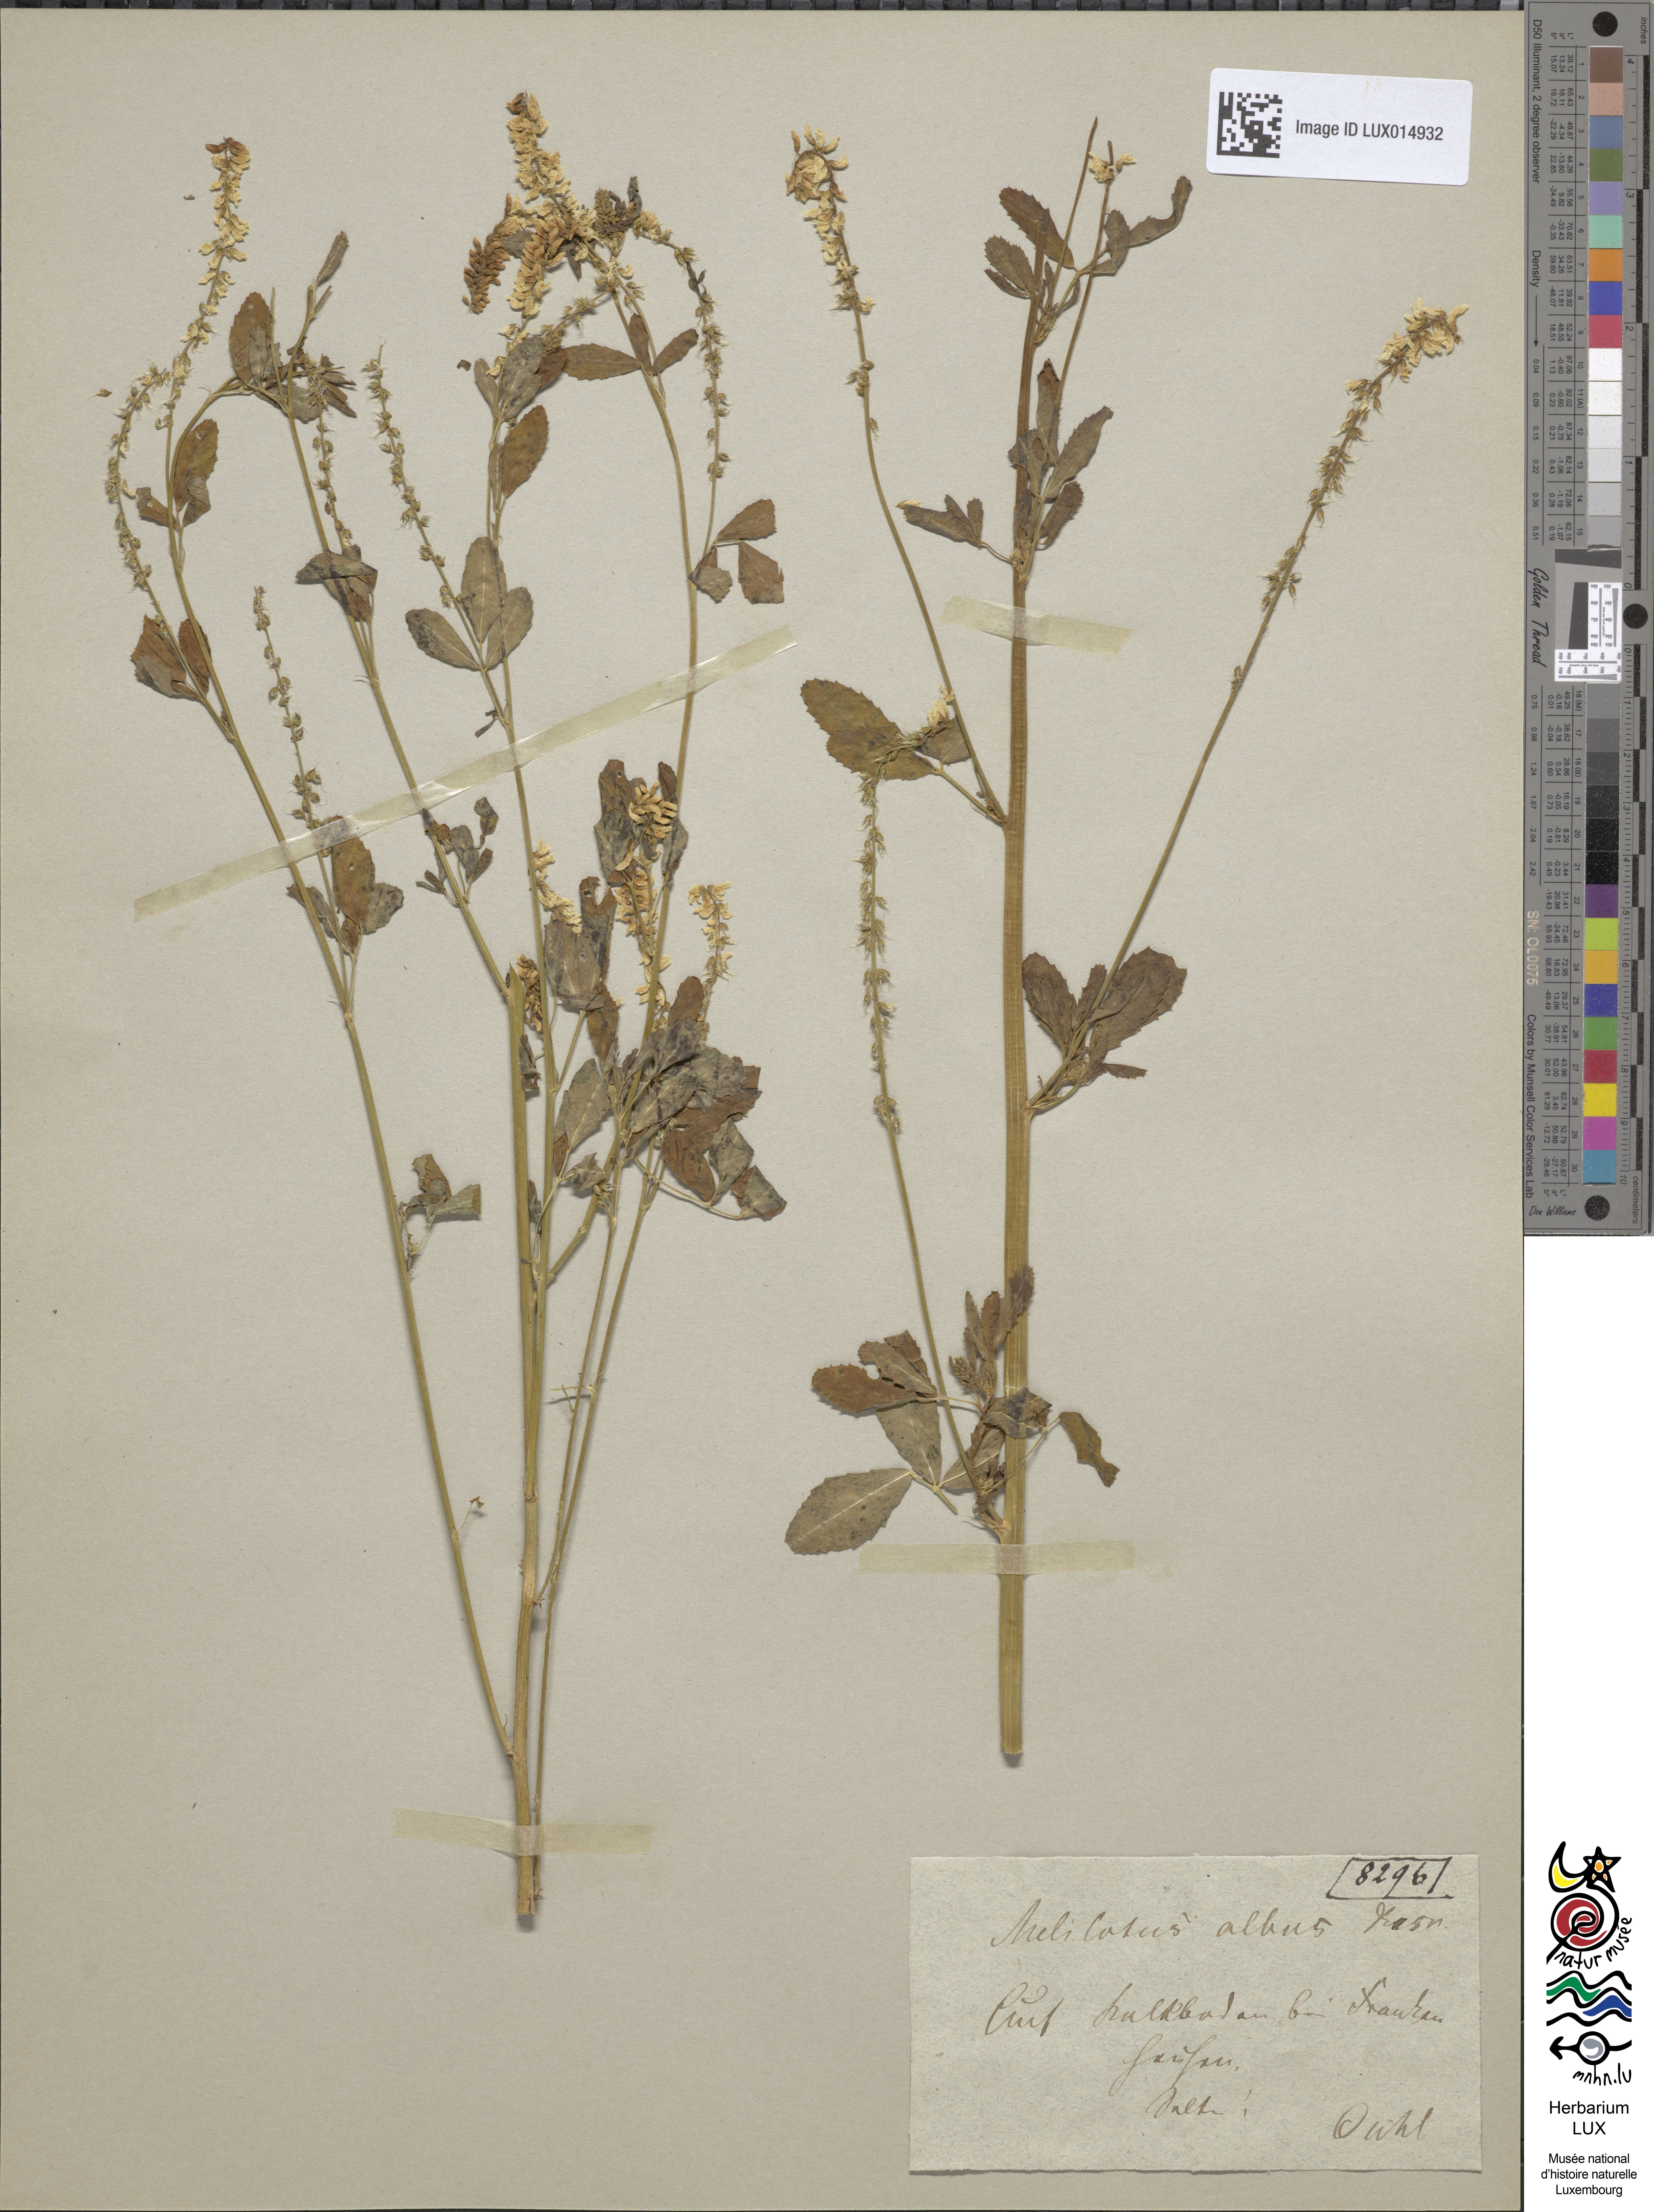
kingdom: Plantae
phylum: Tracheophyta
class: Magnoliopsida
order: Fabales
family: Fabaceae
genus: Melilotus
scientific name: Melilotus albus
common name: White melilot
